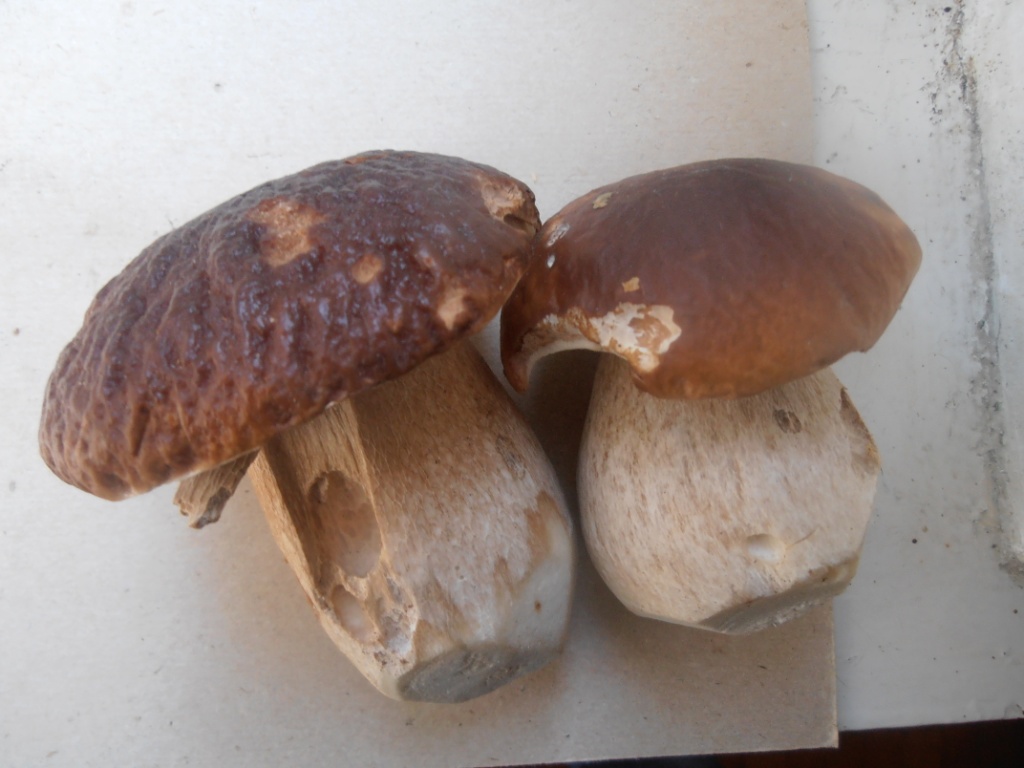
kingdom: Fungi
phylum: Basidiomycota
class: Agaricomycetes
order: Boletales
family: Boletaceae
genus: Boletus
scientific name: Boletus edulis
